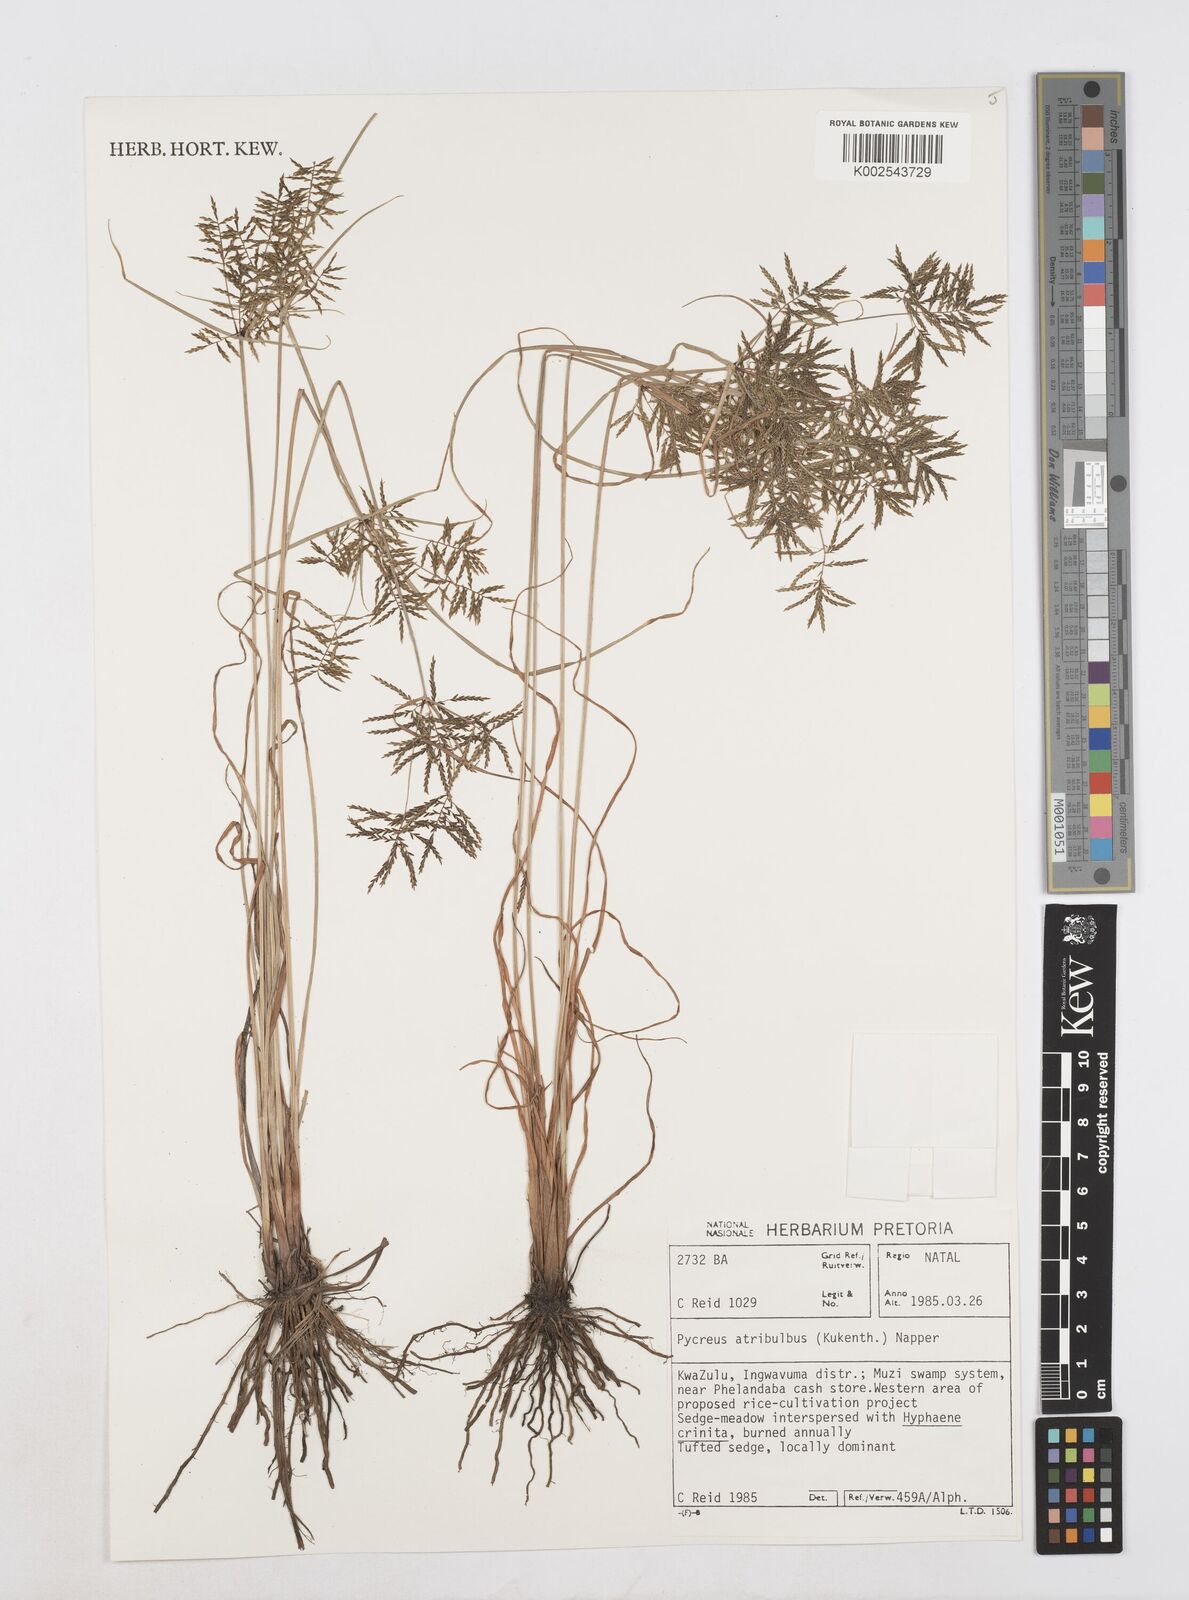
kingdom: Plantae
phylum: Tracheophyta
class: Liliopsida
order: Poales
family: Cyperaceae
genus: Cyperus
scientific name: Cyperus intactus
